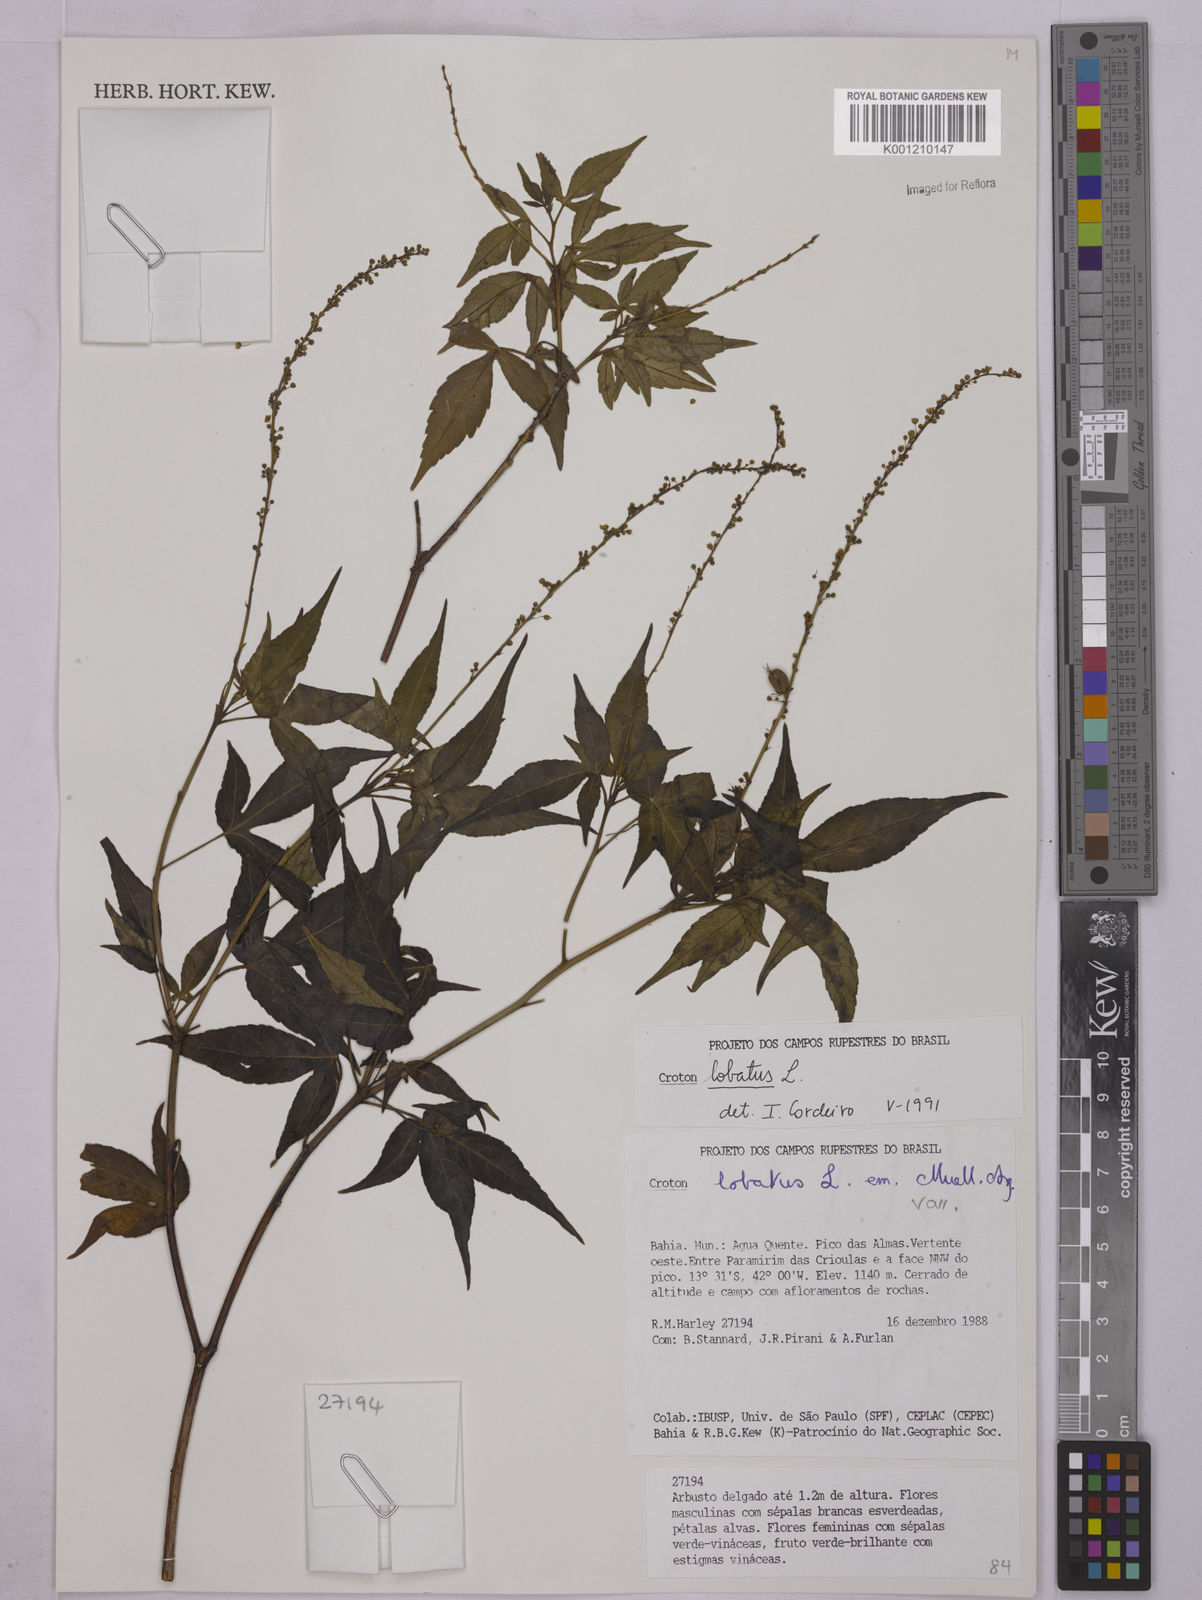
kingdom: Plantae
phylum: Tracheophyta
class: Magnoliopsida
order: Malpighiales
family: Euphorbiaceae
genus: Astraea
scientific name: Astraea lobata
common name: Lobed croton
